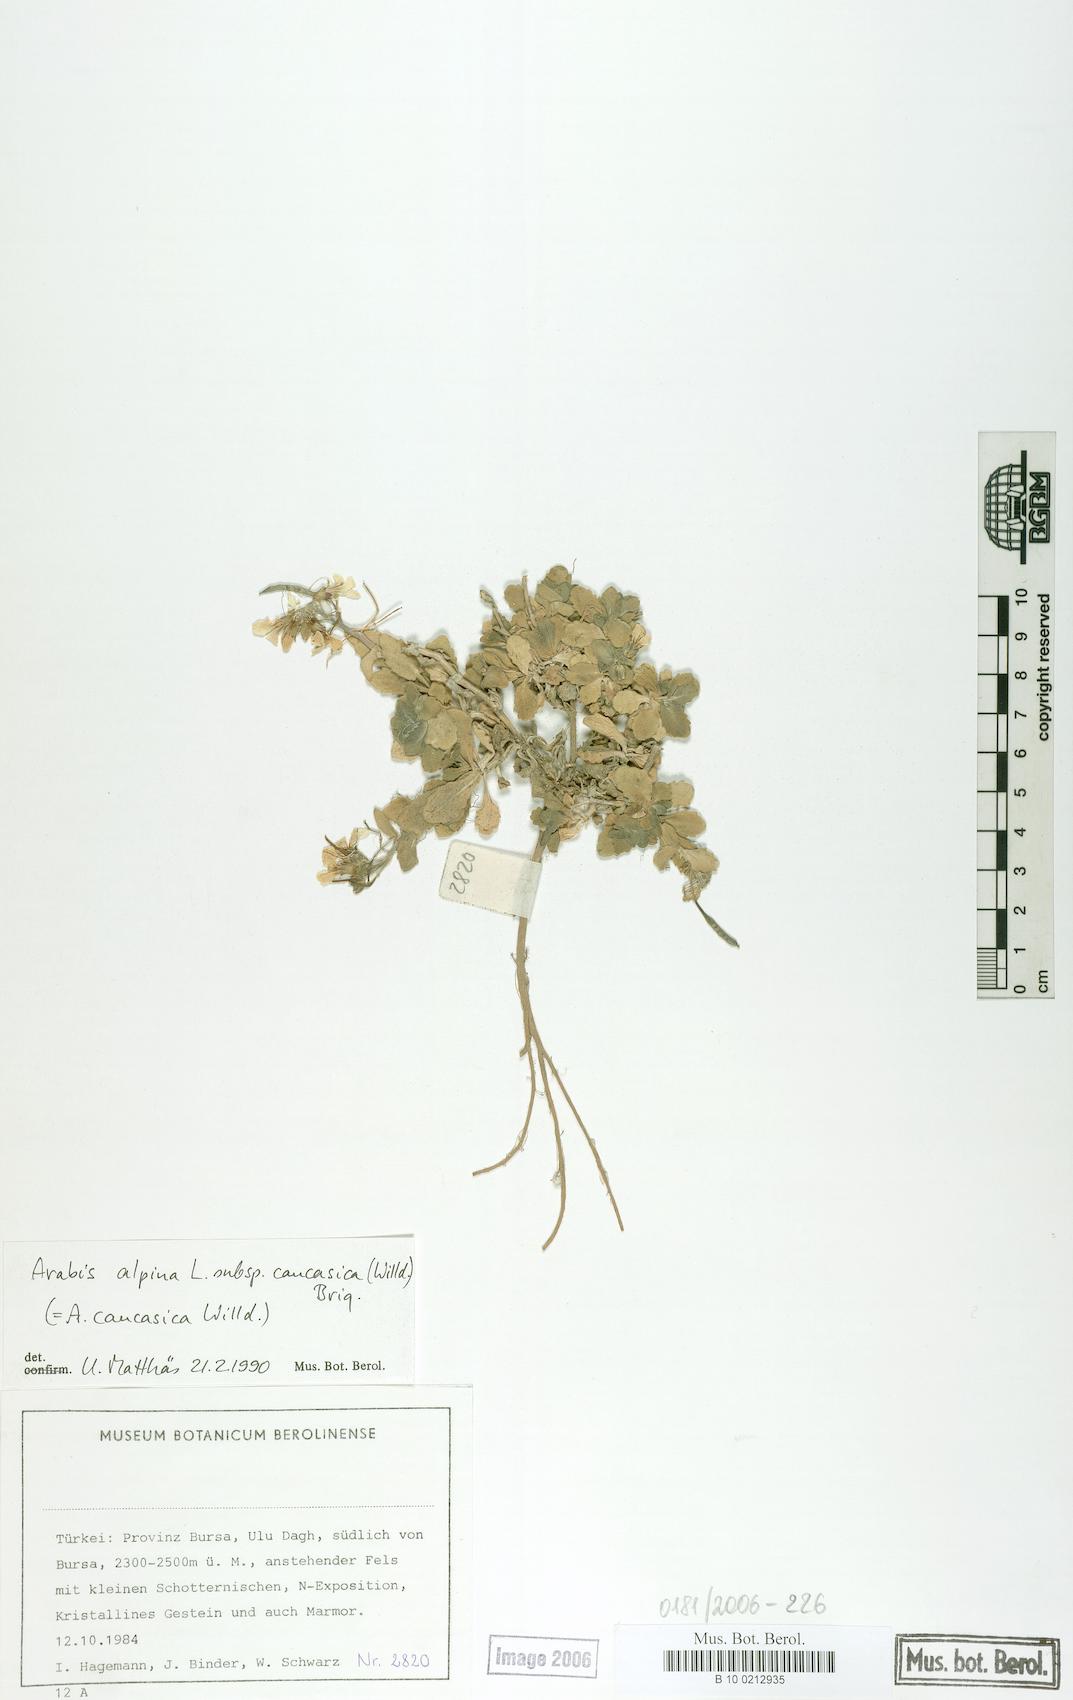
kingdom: Plantae
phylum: Tracheophyta
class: Magnoliopsida
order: Brassicales
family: Brassicaceae
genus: Arabis
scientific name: Arabis caucasica
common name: Gray rockcress
